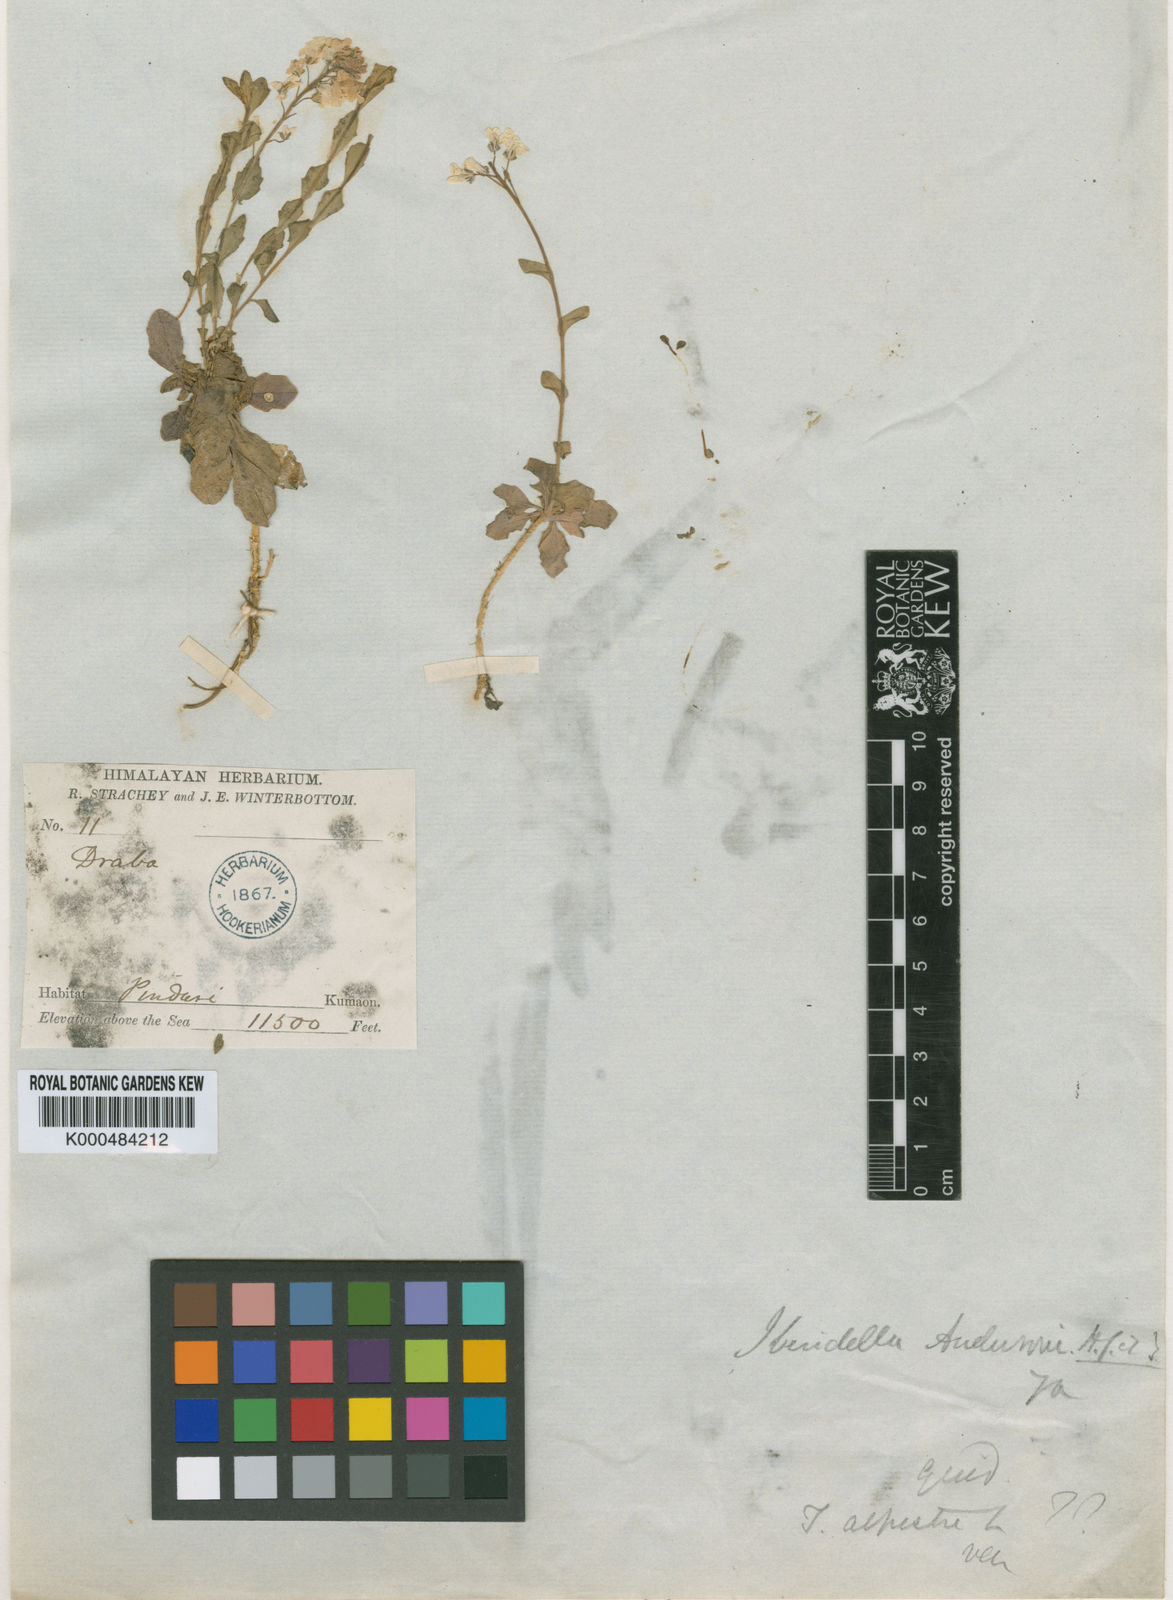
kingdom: Plantae
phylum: Tracheophyta
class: Magnoliopsida
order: Brassicales
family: Brassicaceae
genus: Aethionema
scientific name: Aethionema
